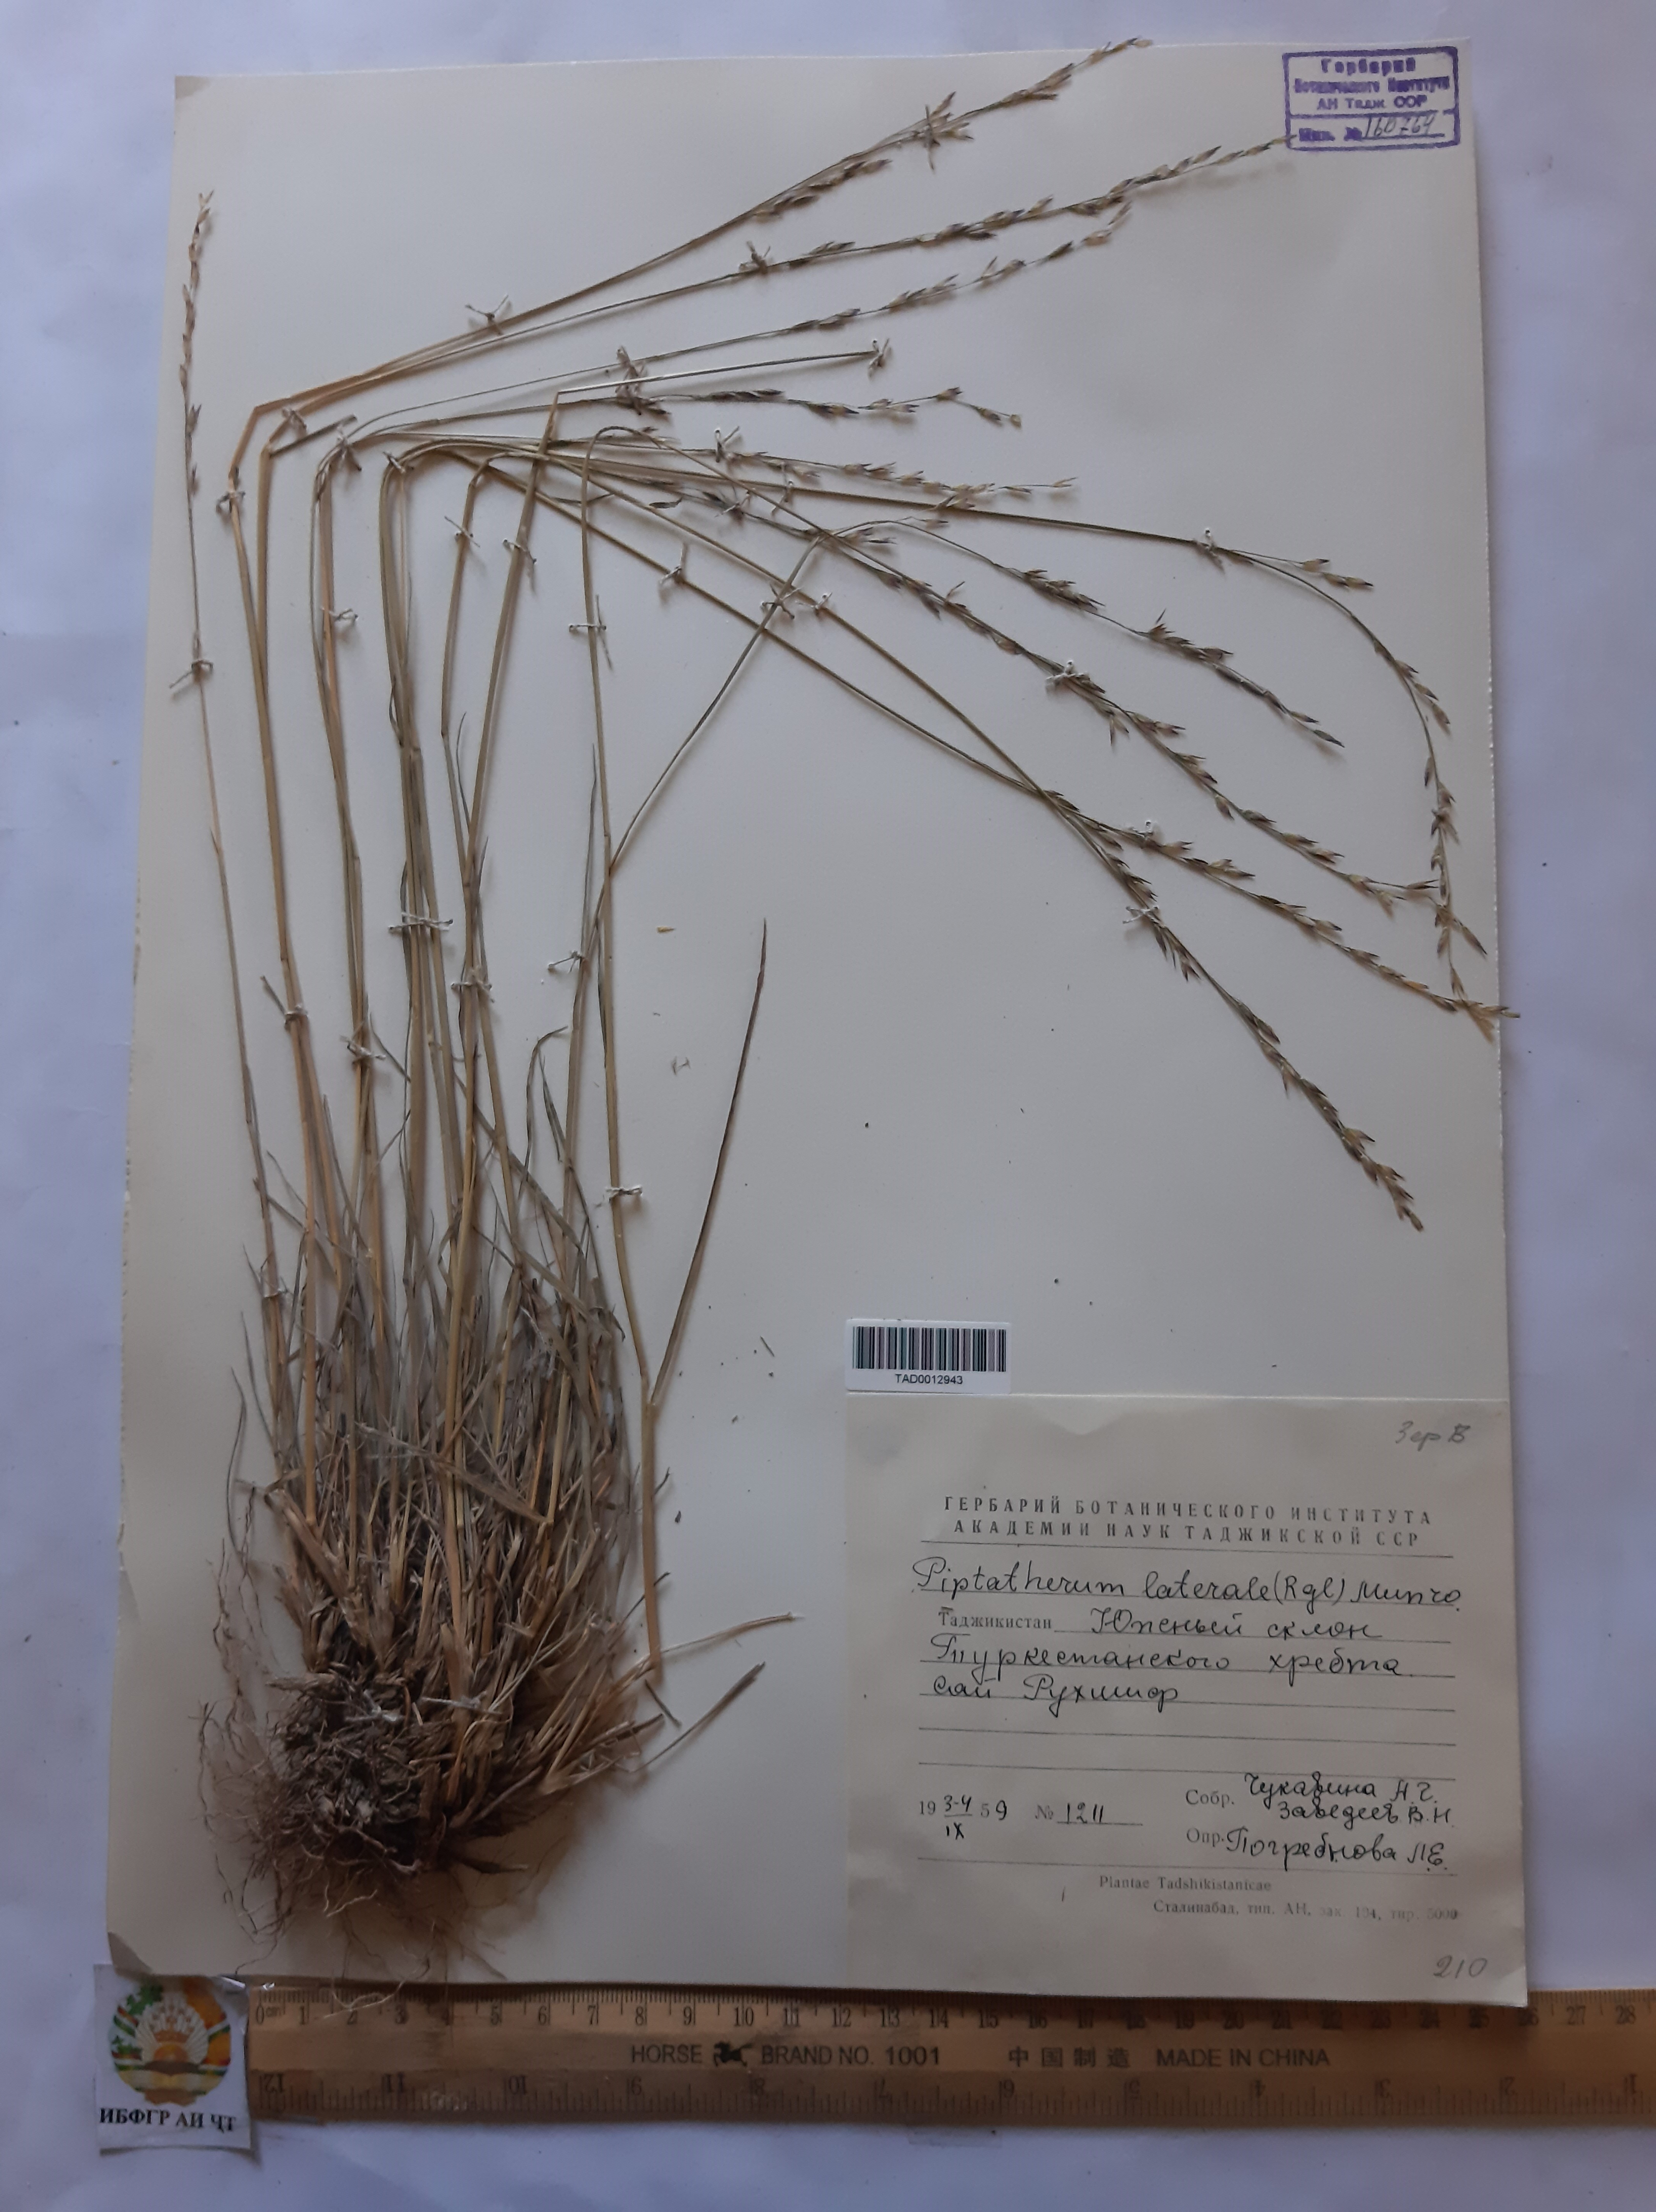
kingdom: Plantae
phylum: Tracheophyta
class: Liliopsida
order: Poales
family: Poaceae
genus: Piptatherum
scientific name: Piptatherum laterale
